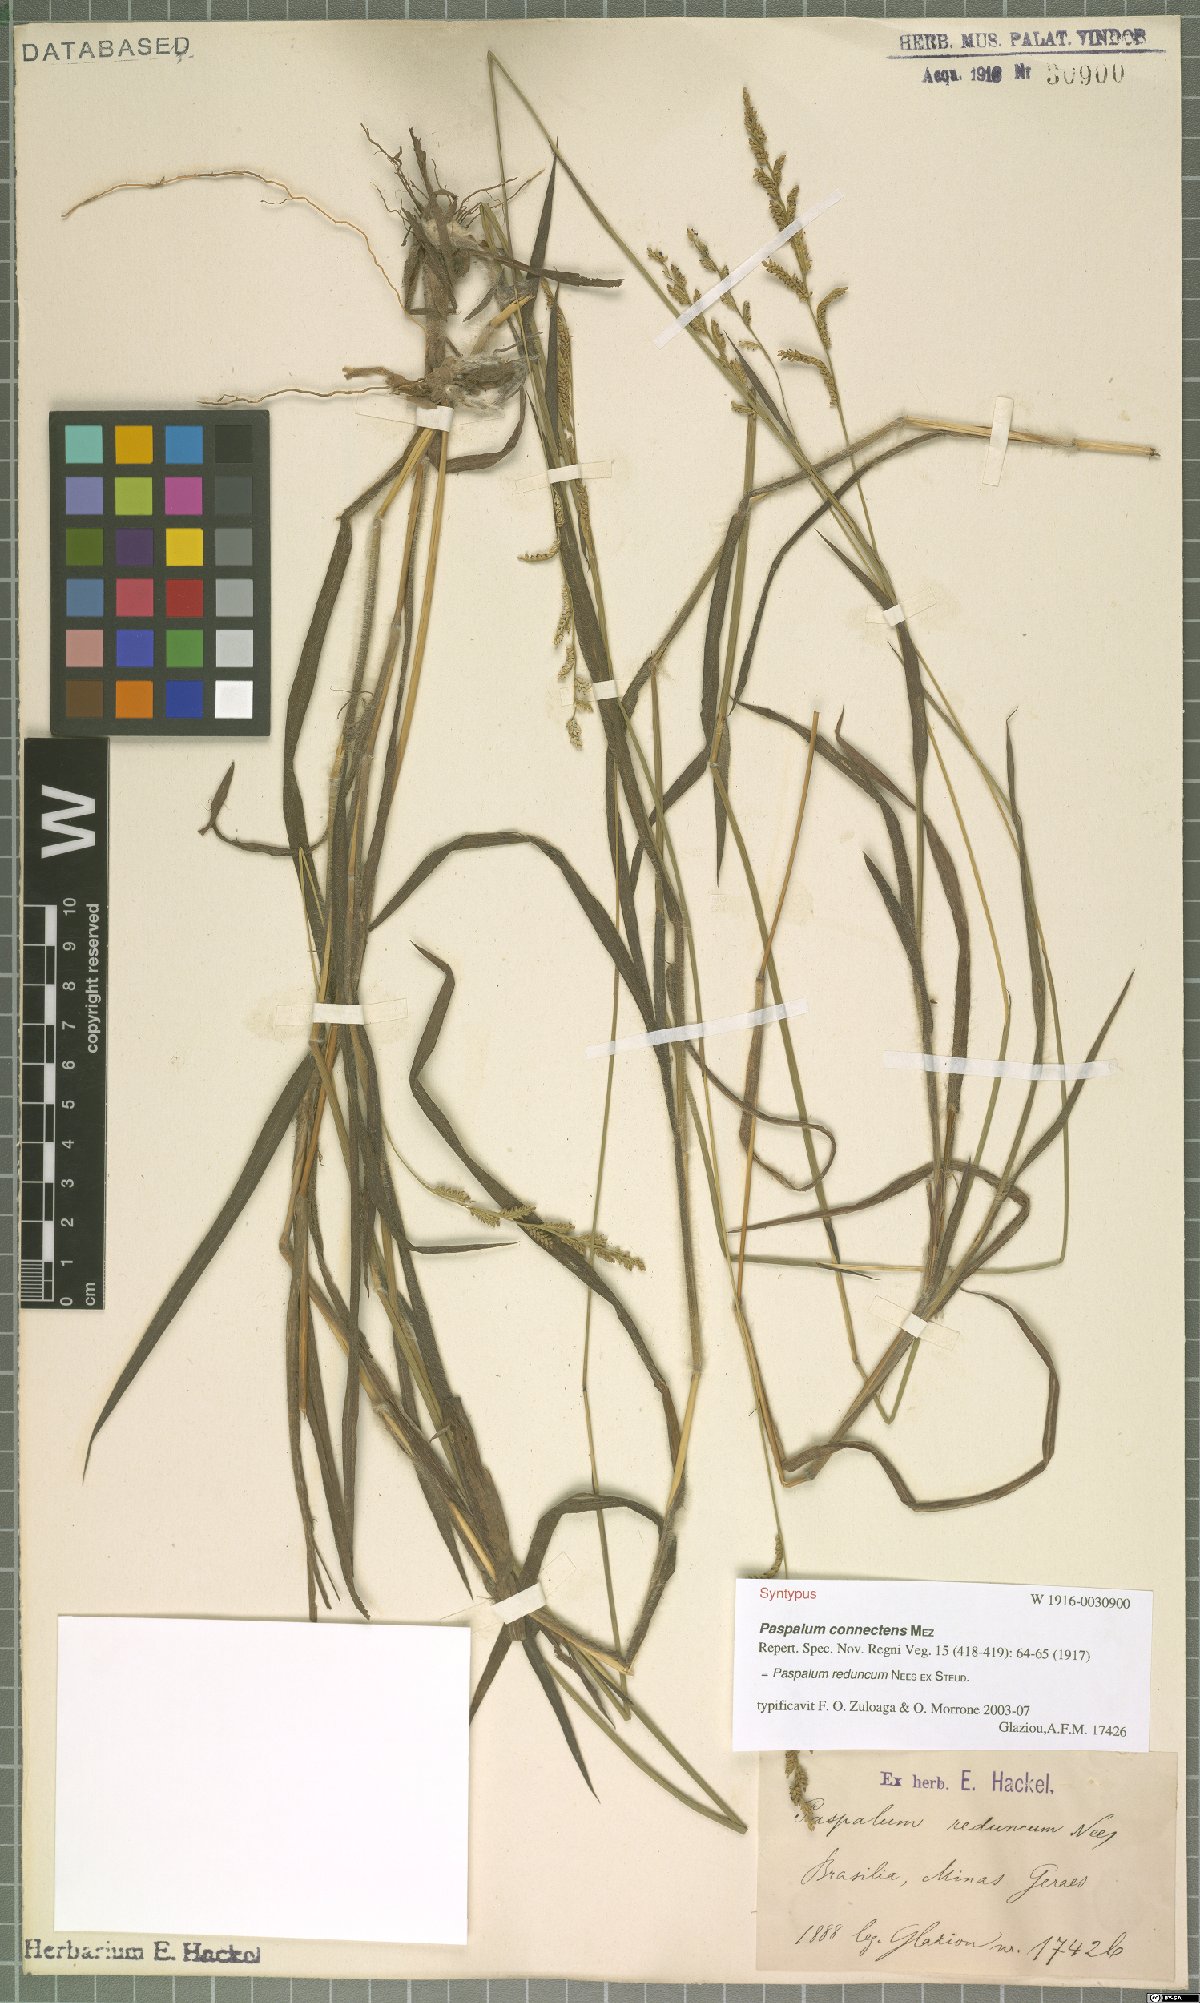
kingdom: Plantae
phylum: Tracheophyta
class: Liliopsida
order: Poales
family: Poaceae
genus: Paspalum
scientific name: Paspalum reduncum
